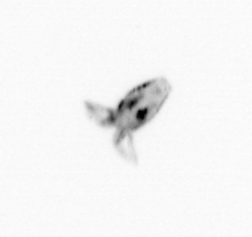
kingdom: Animalia
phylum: Arthropoda
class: Copepoda
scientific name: Copepoda
